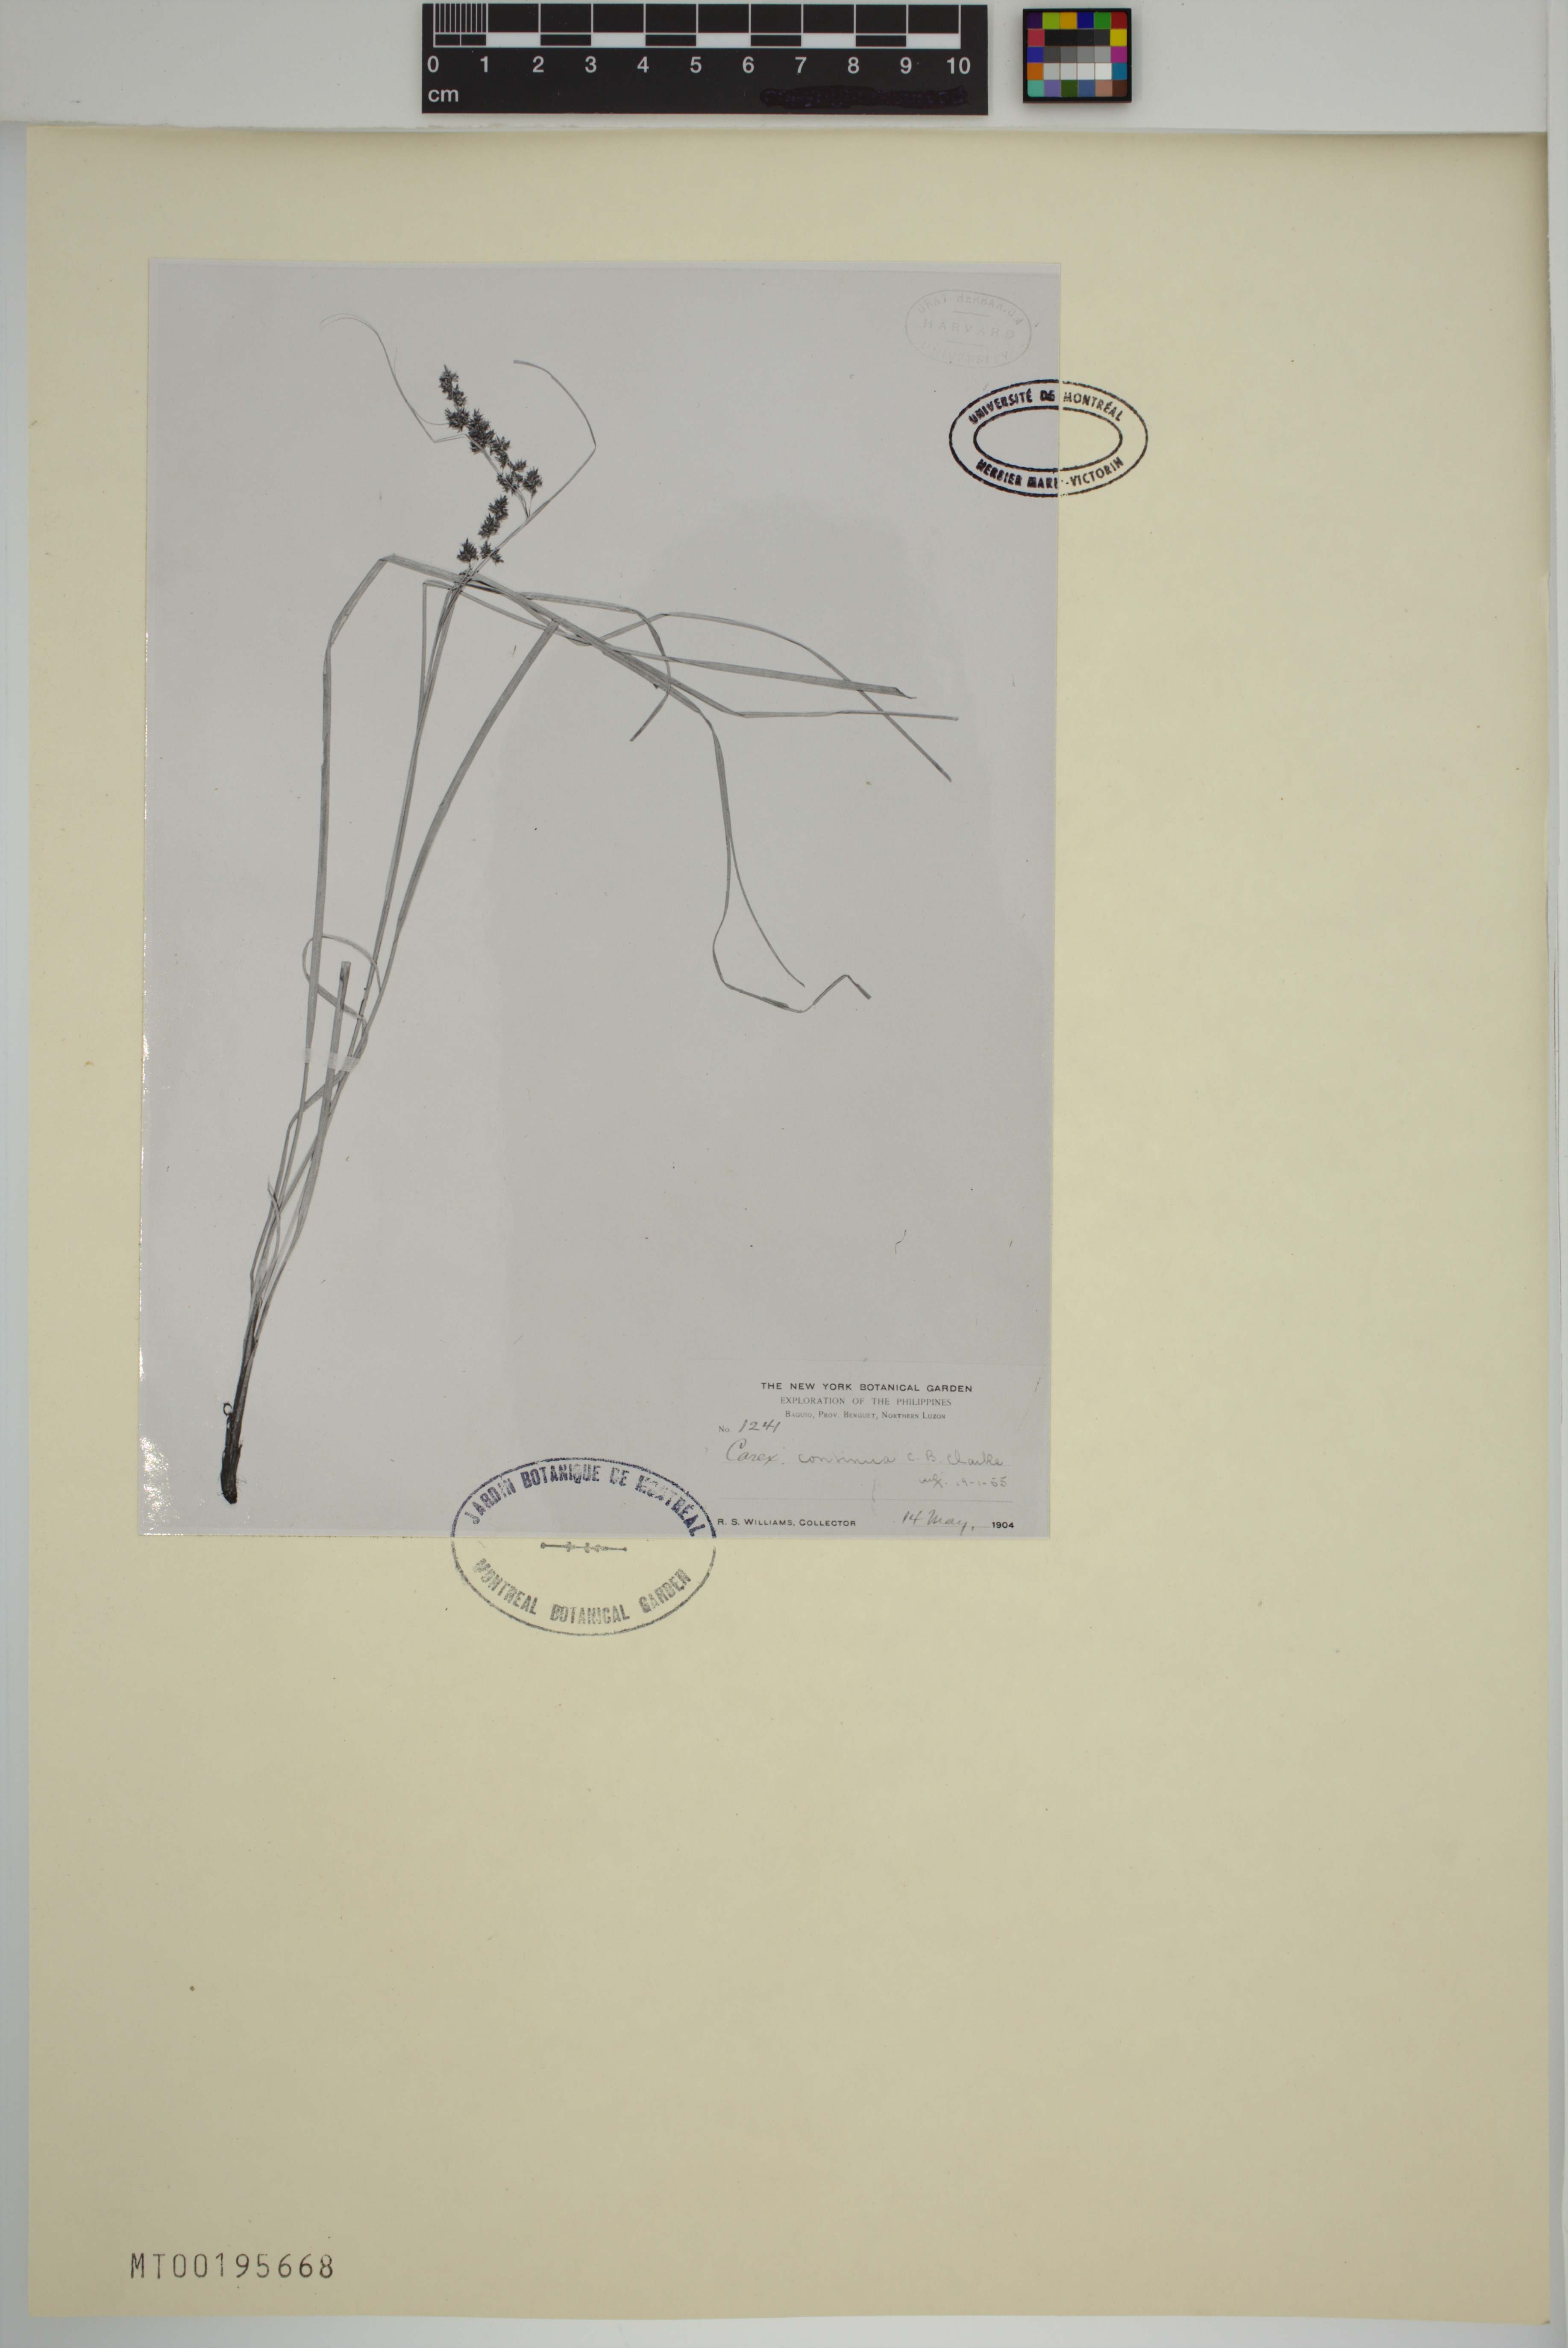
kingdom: Plantae
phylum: Tracheophyta
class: Liliopsida
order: Poales
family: Cyperaceae
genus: Carex
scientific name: Carex continua
